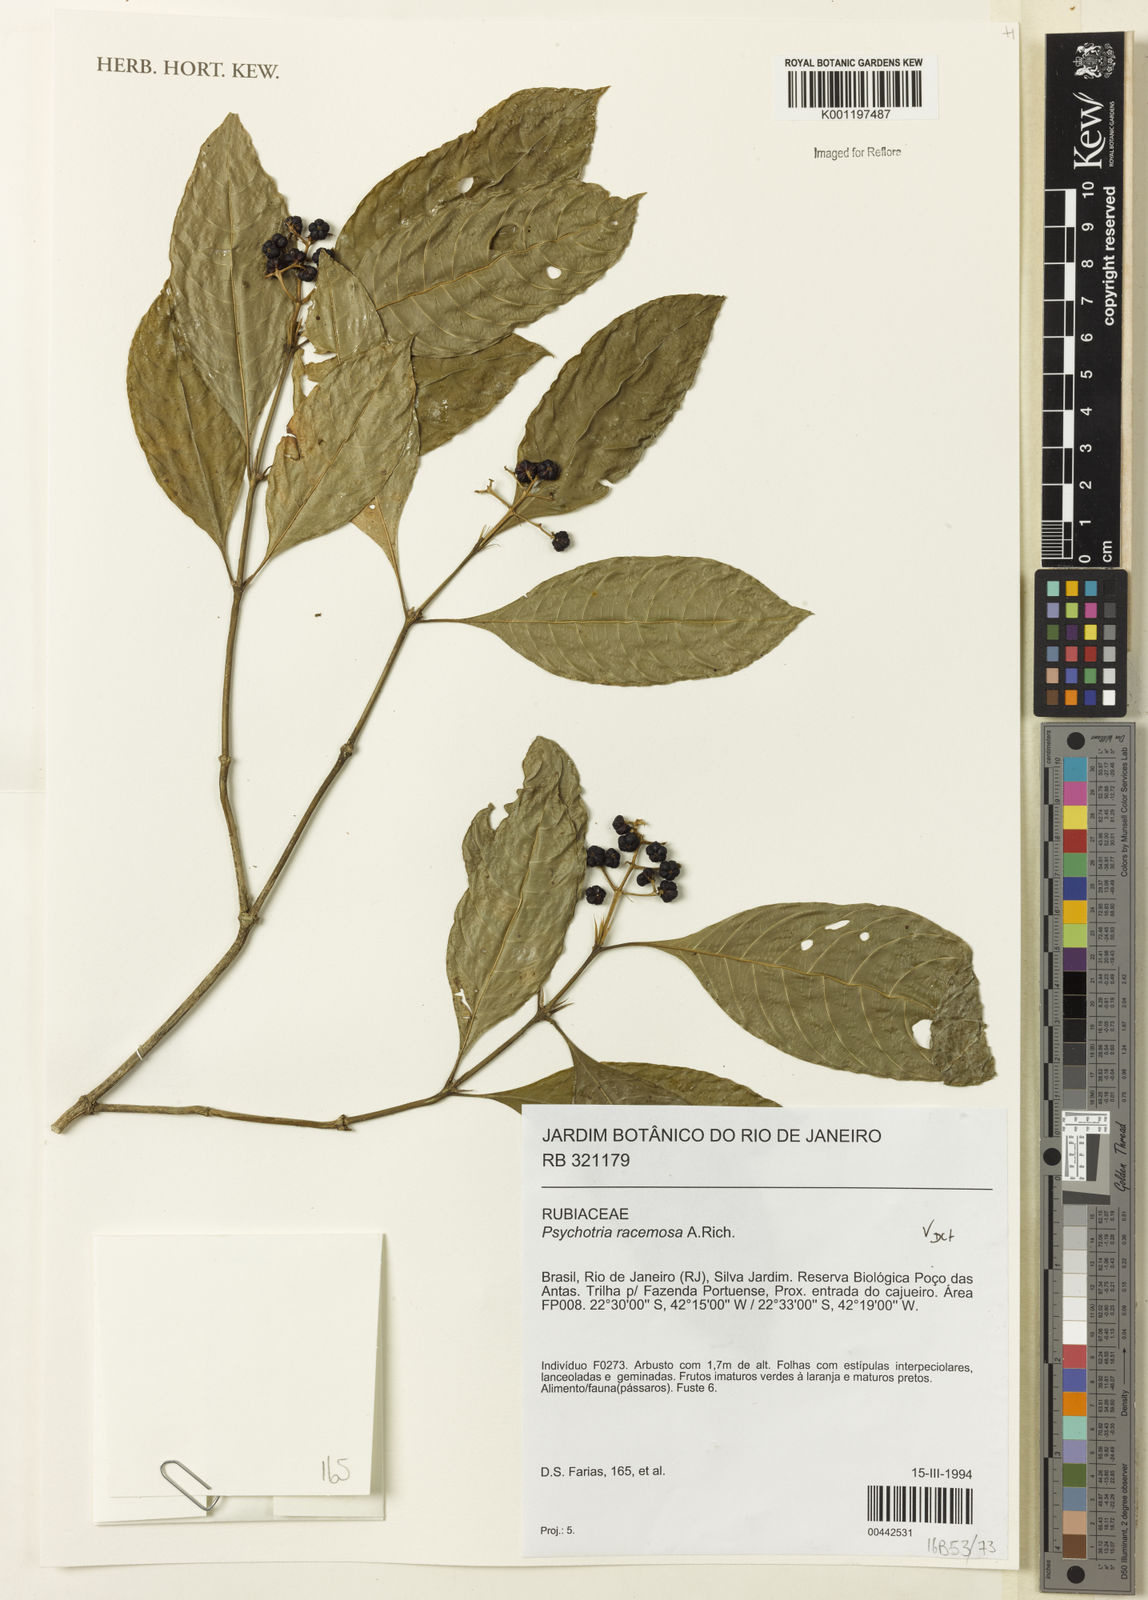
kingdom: Plantae
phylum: Tracheophyta
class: Magnoliopsida
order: Gentianales
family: Rubiaceae
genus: Palicourea
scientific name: Palicourea racemosa
